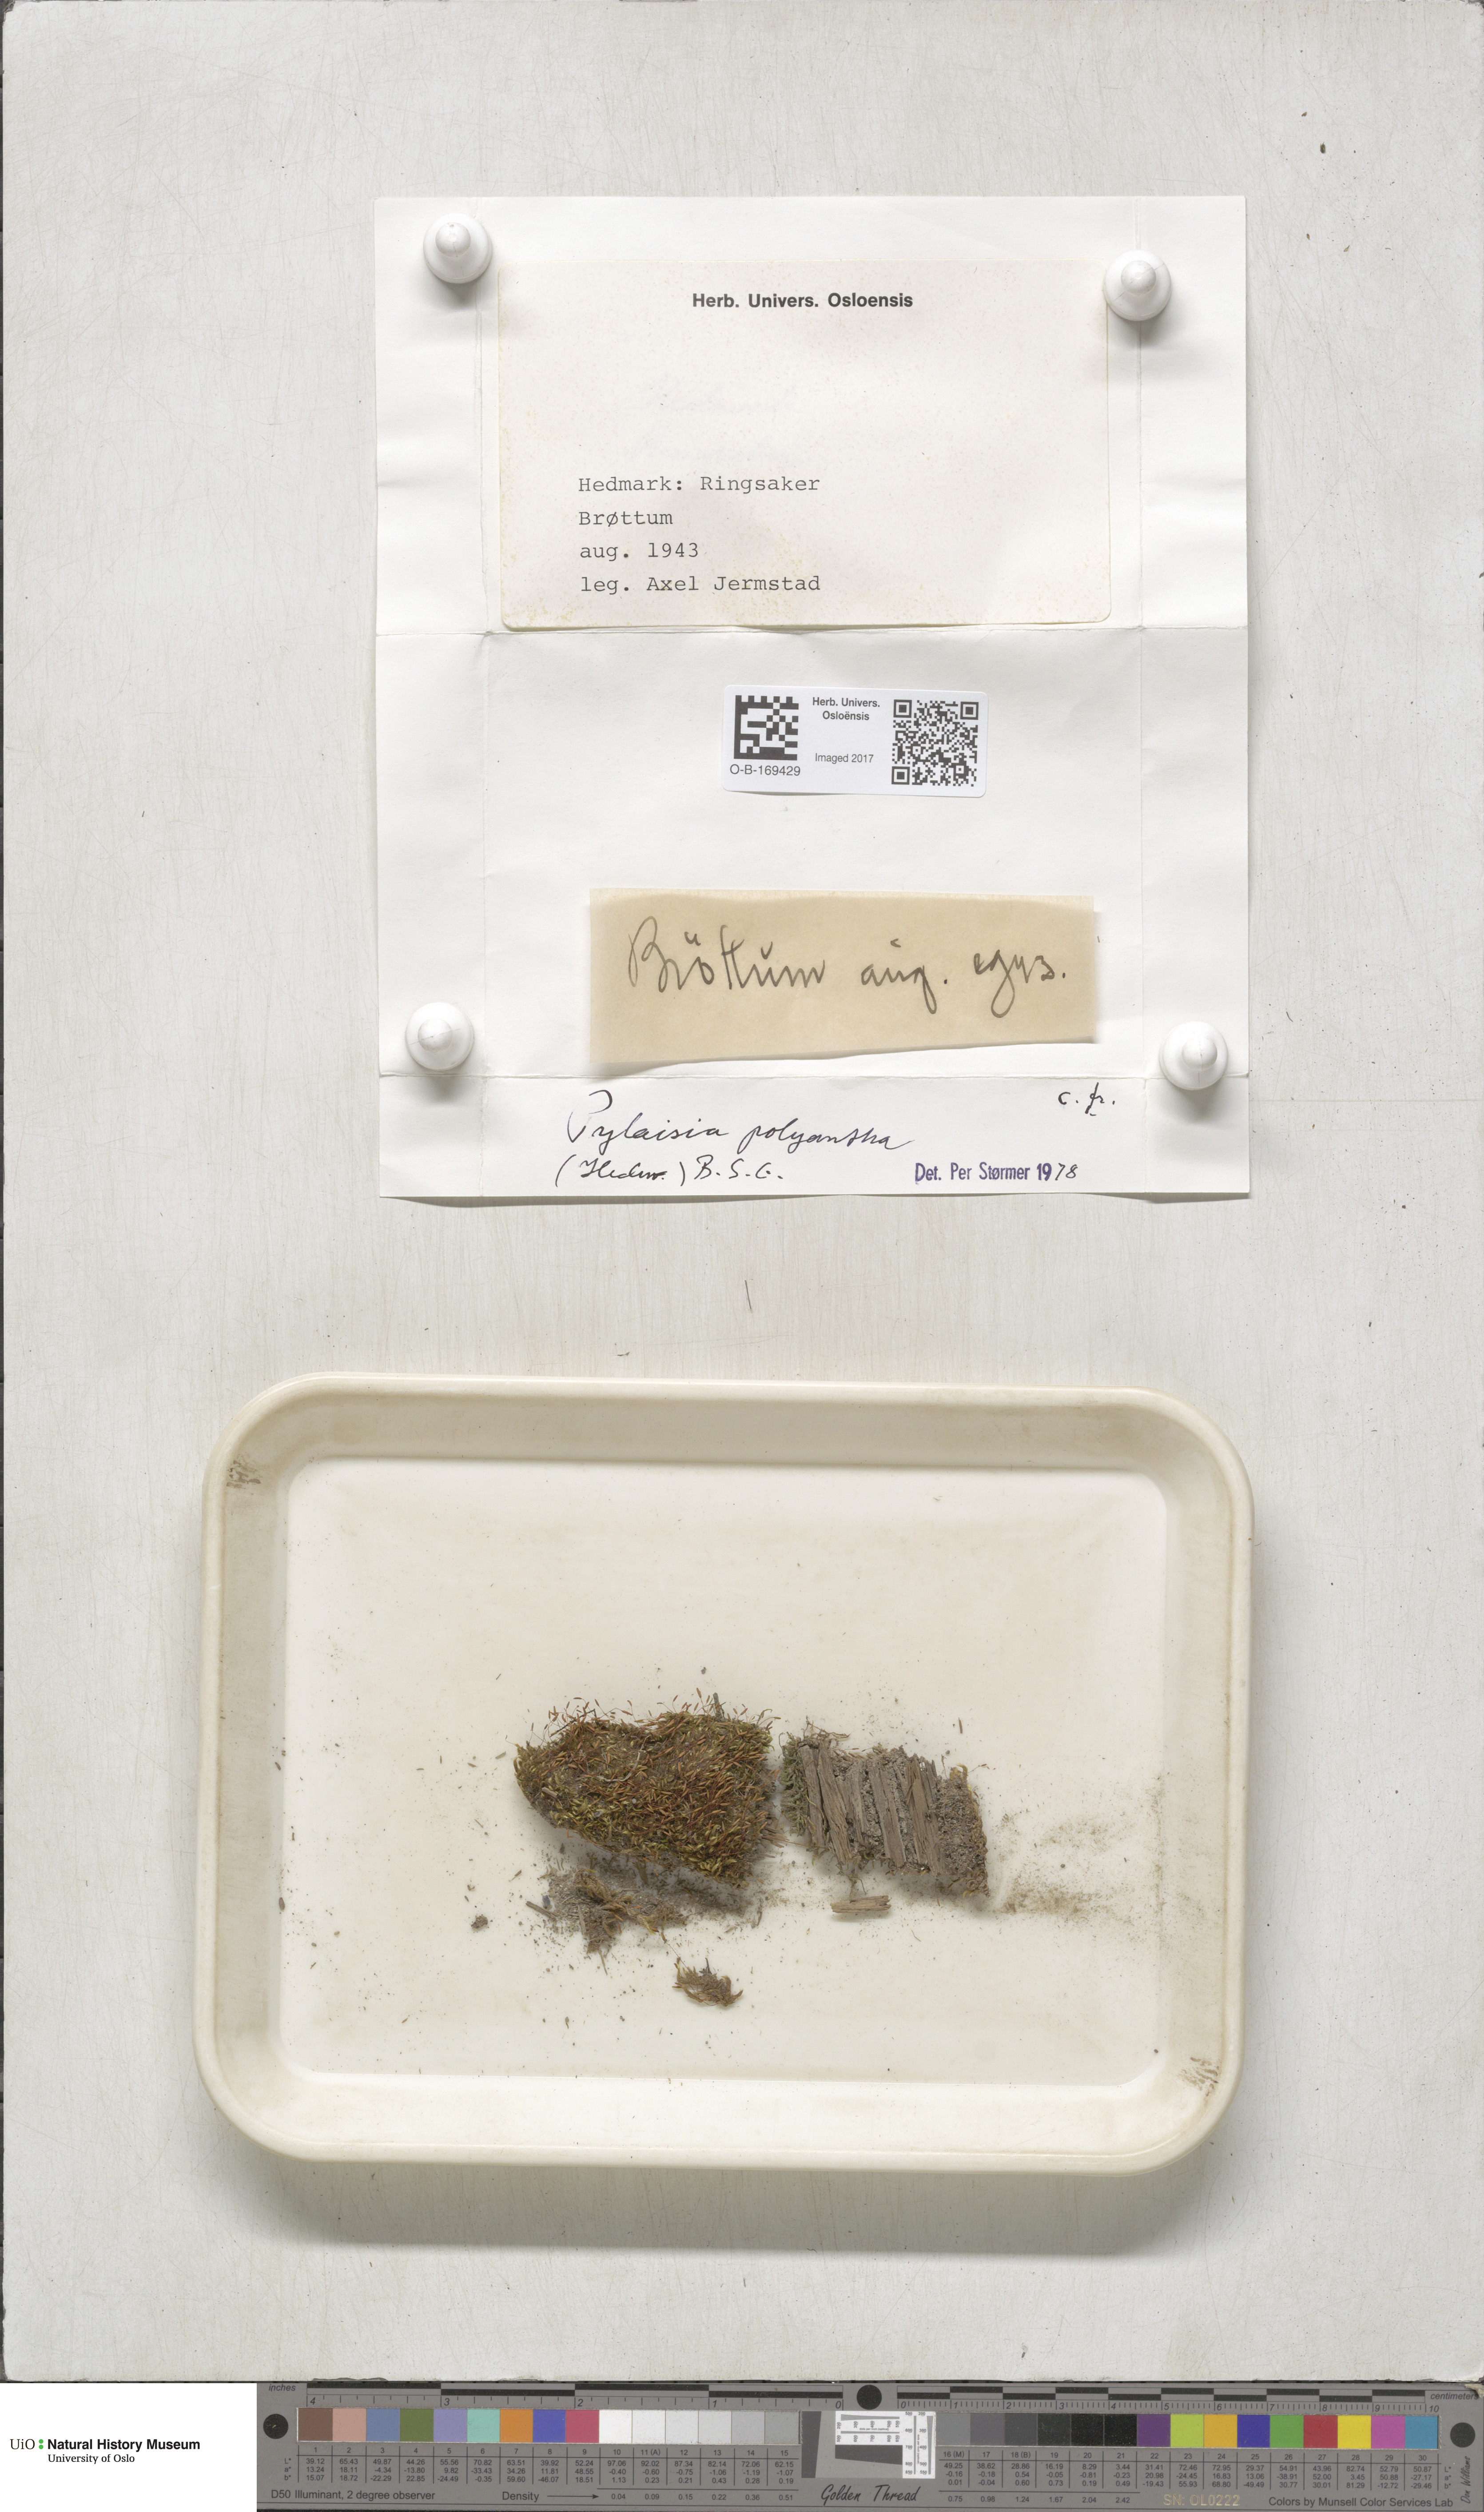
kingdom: Plantae
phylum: Bryophyta
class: Bryopsida
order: Hypnales
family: Pylaisiaceae
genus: Pylaisia
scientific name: Pylaisia polyantha
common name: Many-flowered leskea
